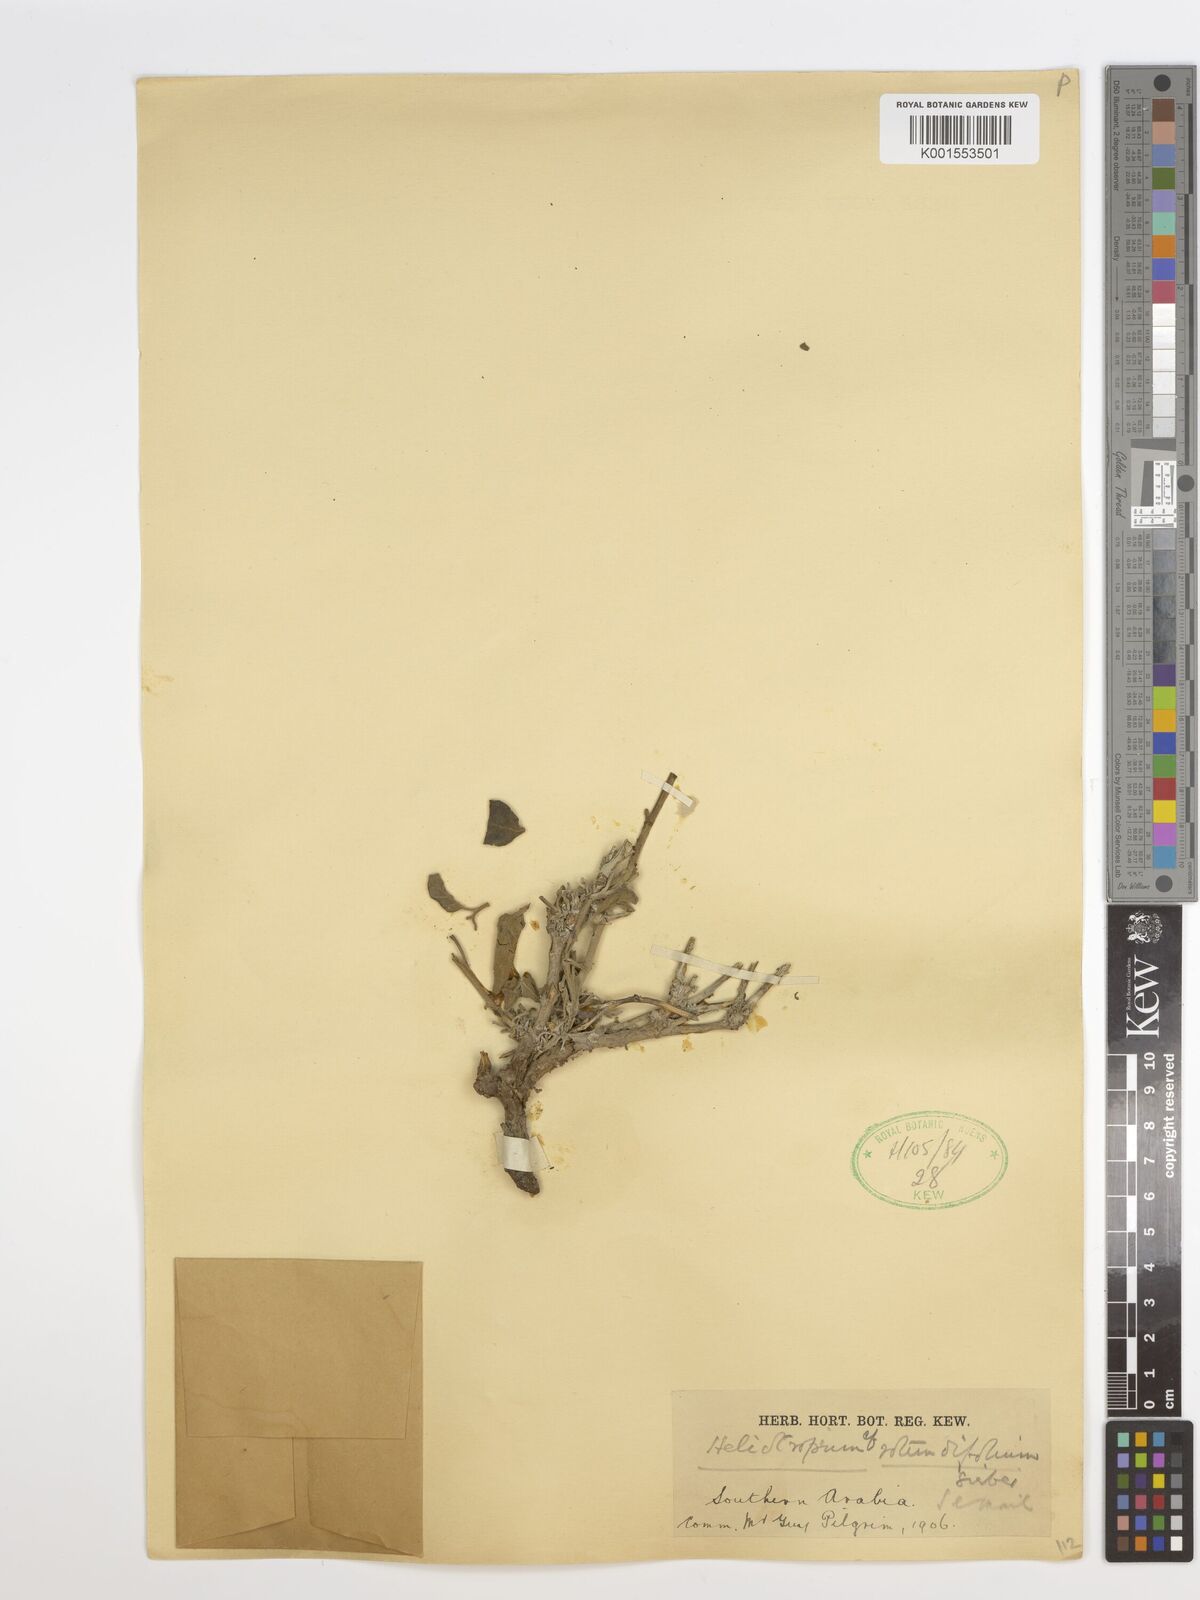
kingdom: Plantae
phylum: Tracheophyta
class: Magnoliopsida
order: Boraginales
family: Heliotropiaceae
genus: Heliotropium
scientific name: Heliotropium rotundifolium
